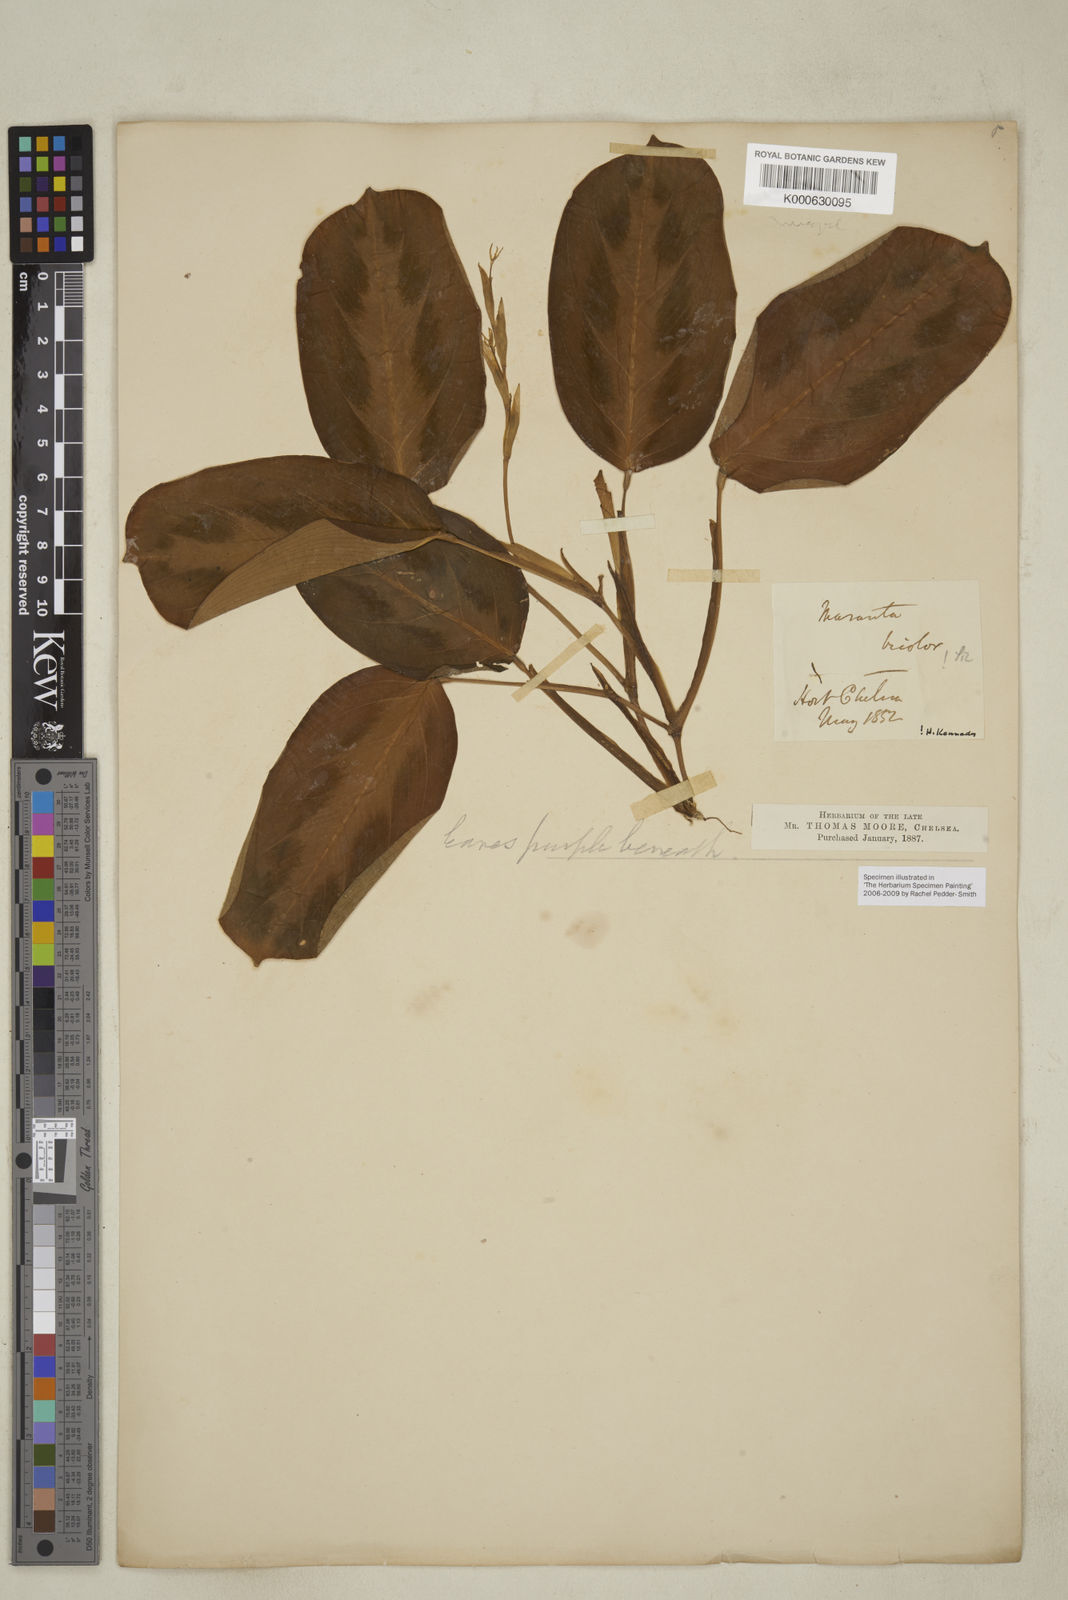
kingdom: Plantae
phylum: Tracheophyta
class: Liliopsida
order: Zingiberales
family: Marantaceae
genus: Maranta
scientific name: Maranta cristata
